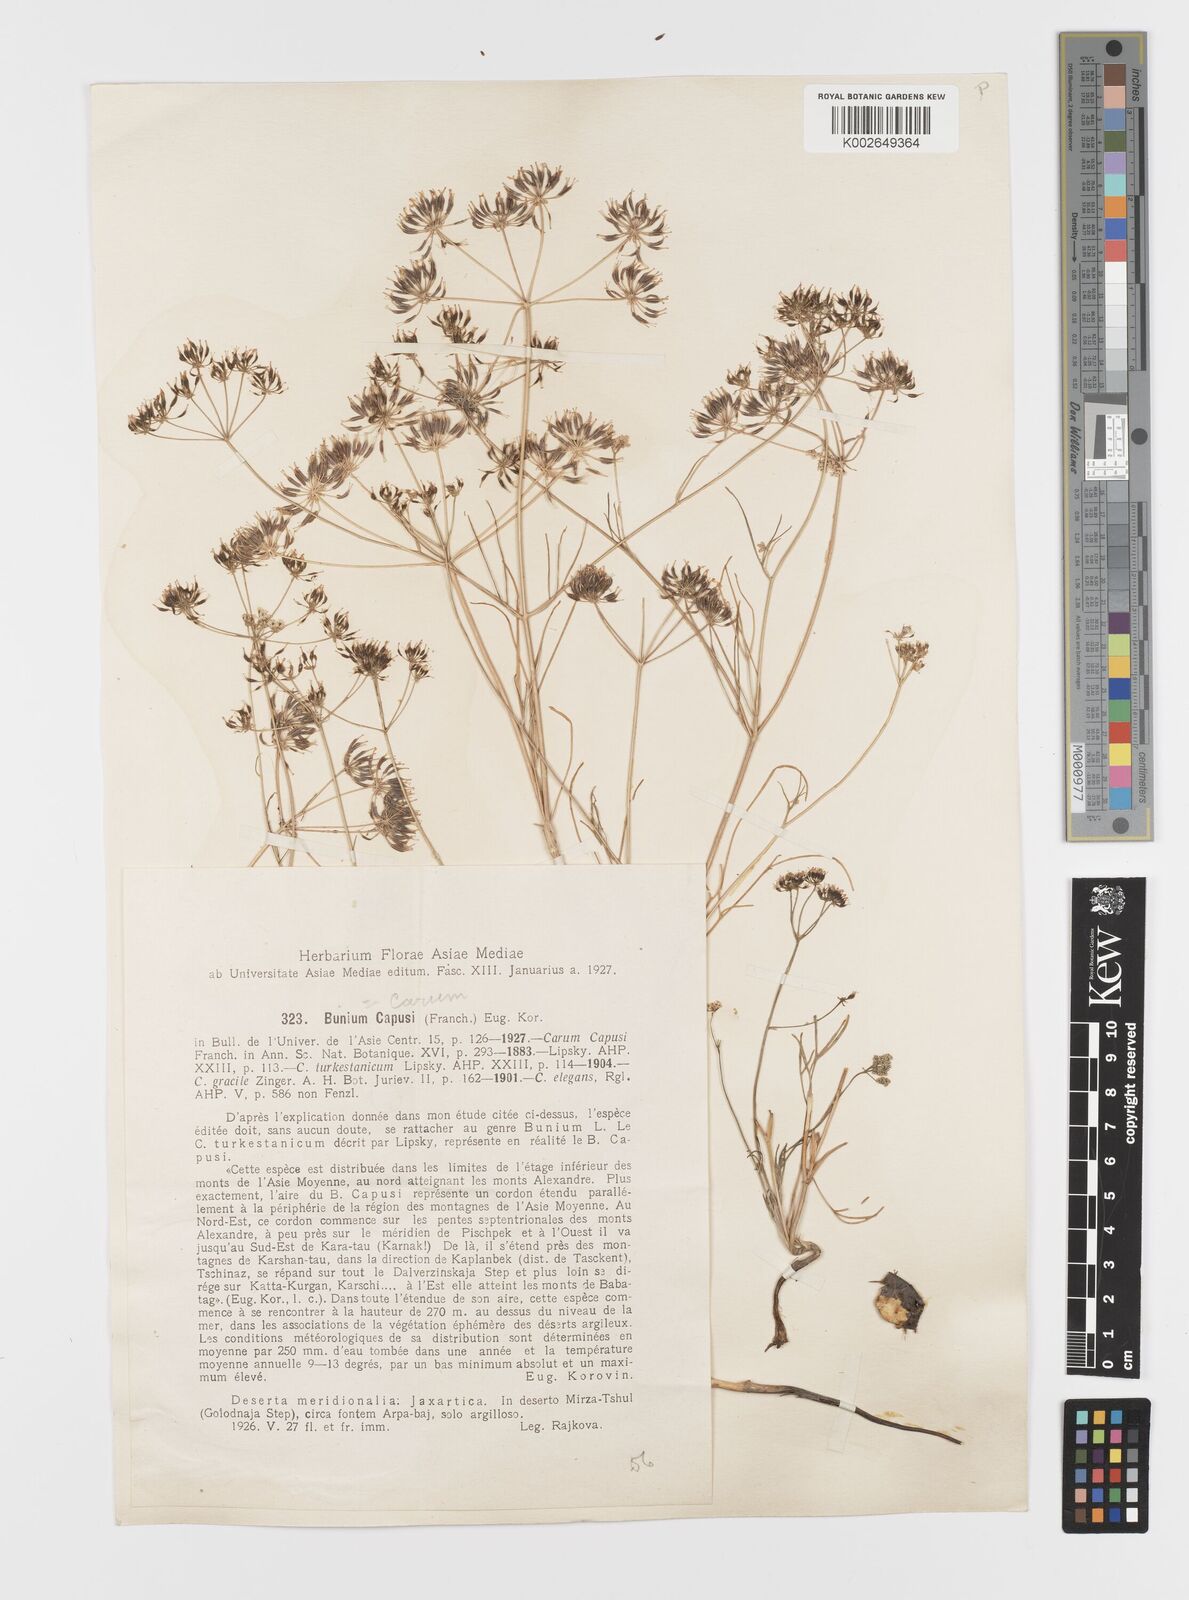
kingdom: Plantae
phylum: Tracheophyta
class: Magnoliopsida
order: Apiales
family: Apiaceae
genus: Elwendia
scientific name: Elwendia capusii
